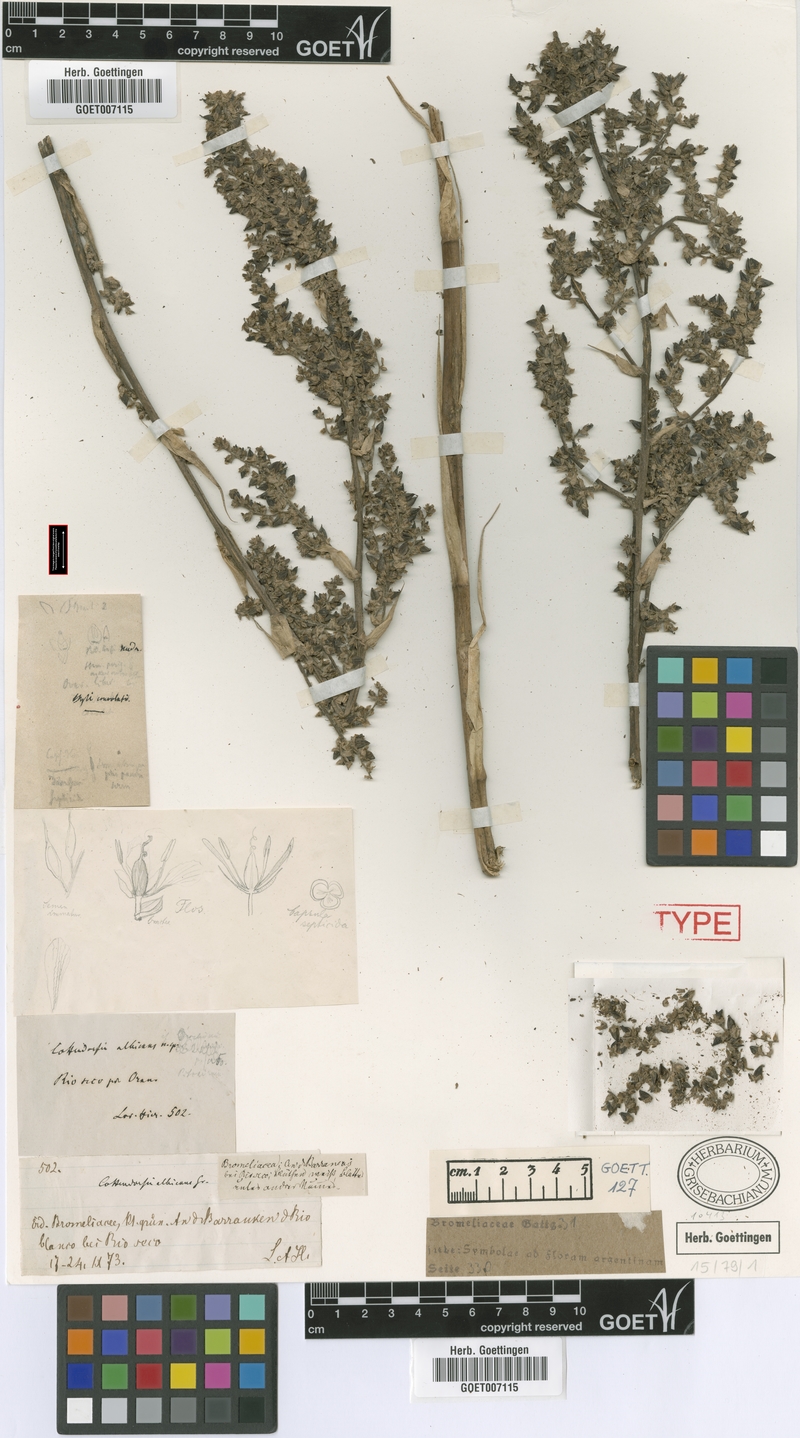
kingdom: Plantae
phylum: Tracheophyta
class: Liliopsida
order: Poales
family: Bromeliaceae
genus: Fosterella
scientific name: Fosterella albicans
